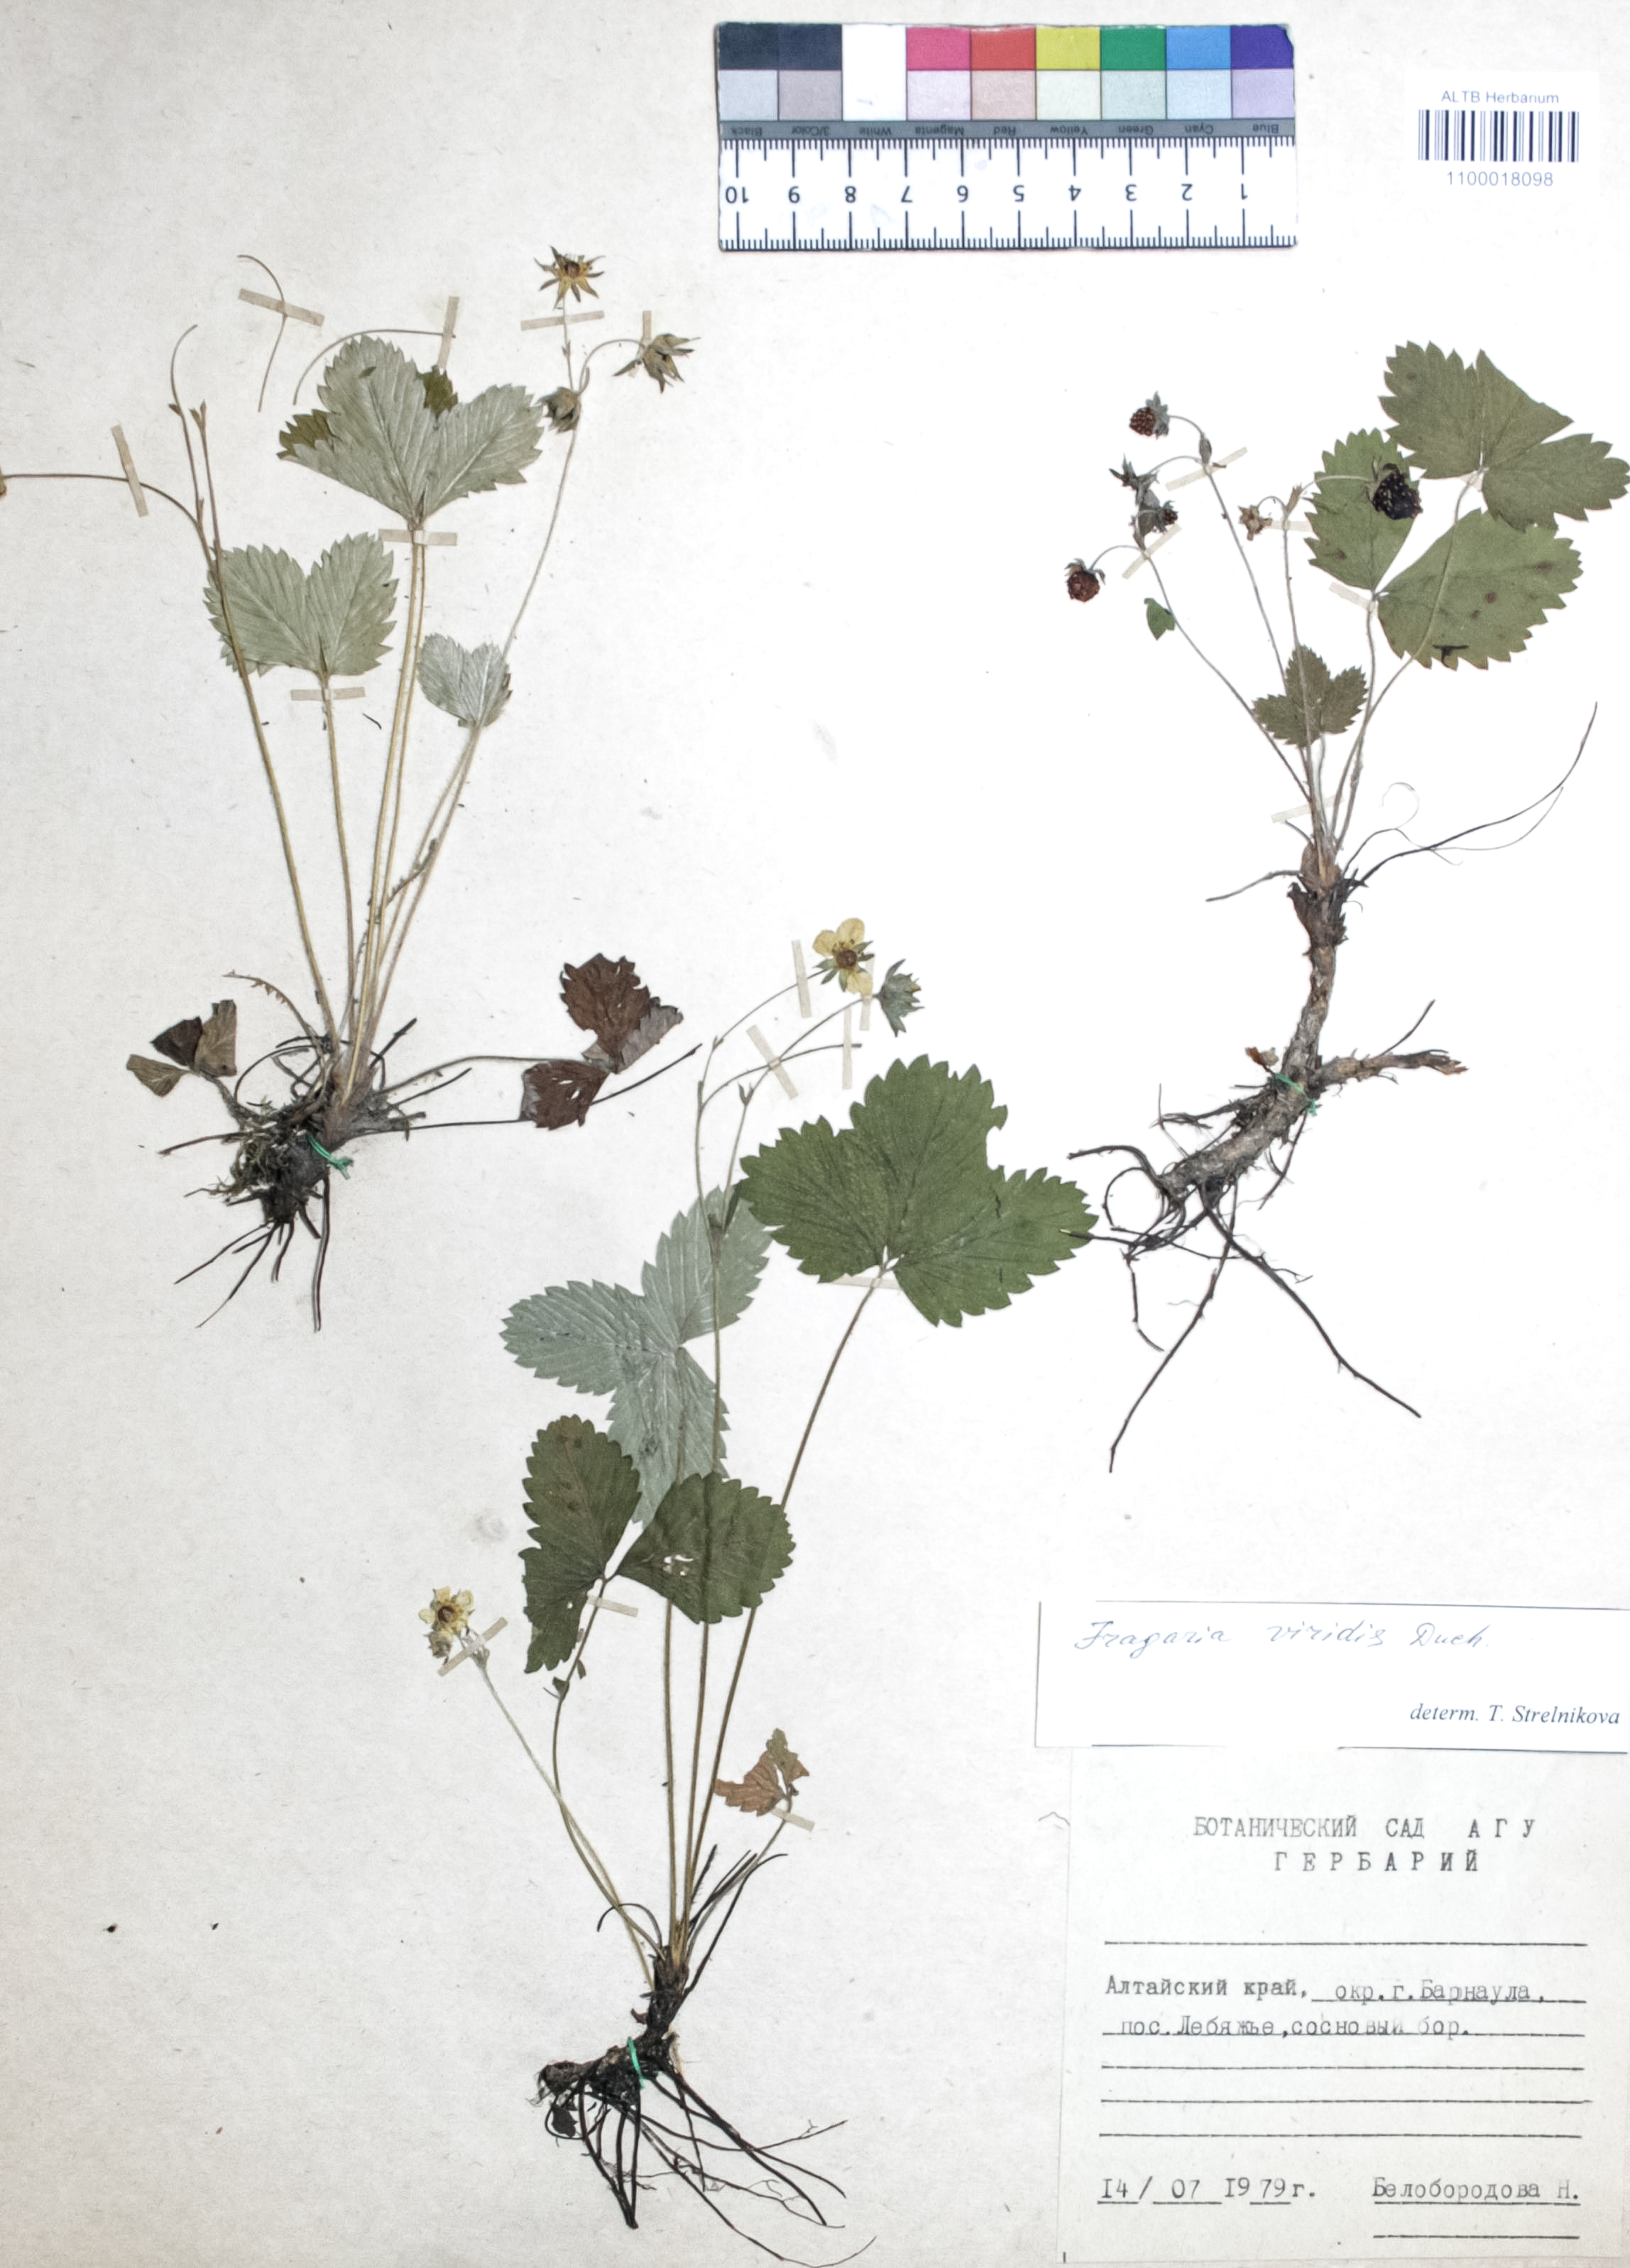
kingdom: Plantae
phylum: Tracheophyta
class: Magnoliopsida
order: Rosales
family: Rosaceae
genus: Fragaria
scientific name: Fragaria viridis
